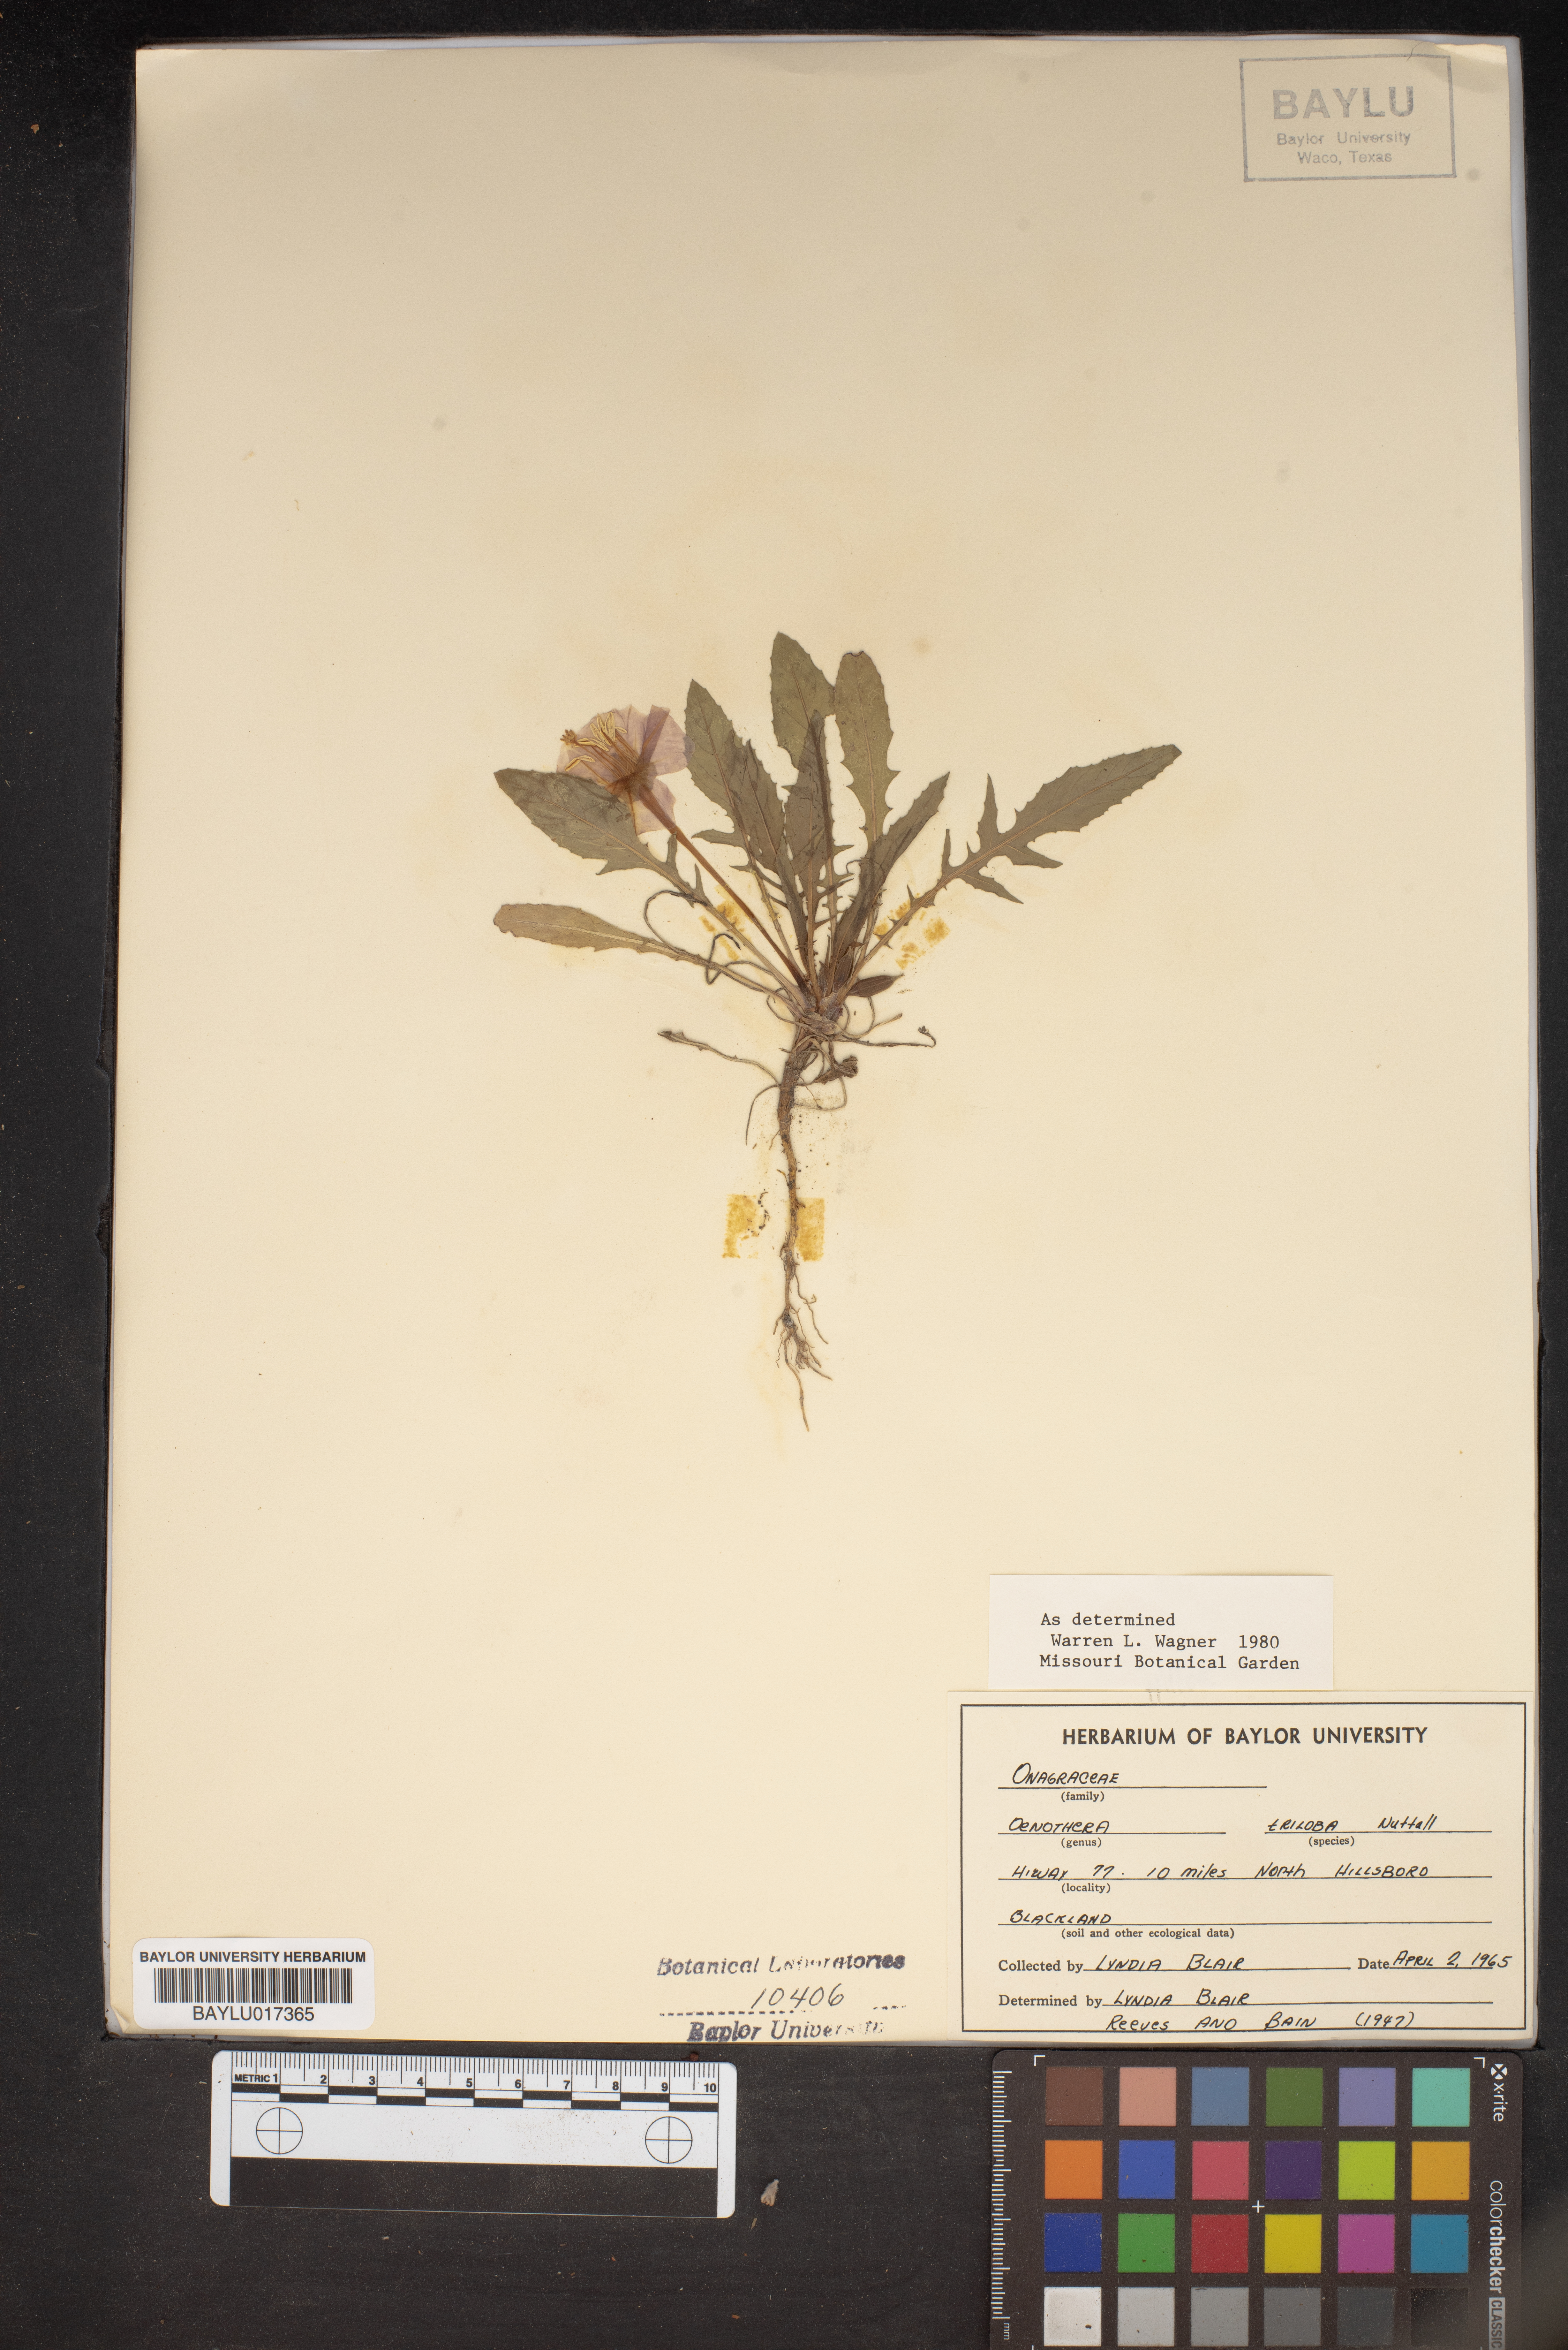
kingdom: Plantae
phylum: Tracheophyta
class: Magnoliopsida
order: Myrtales
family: Onagraceae
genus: Oenothera
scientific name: Oenothera triloba
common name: Sessile evening-primrose
